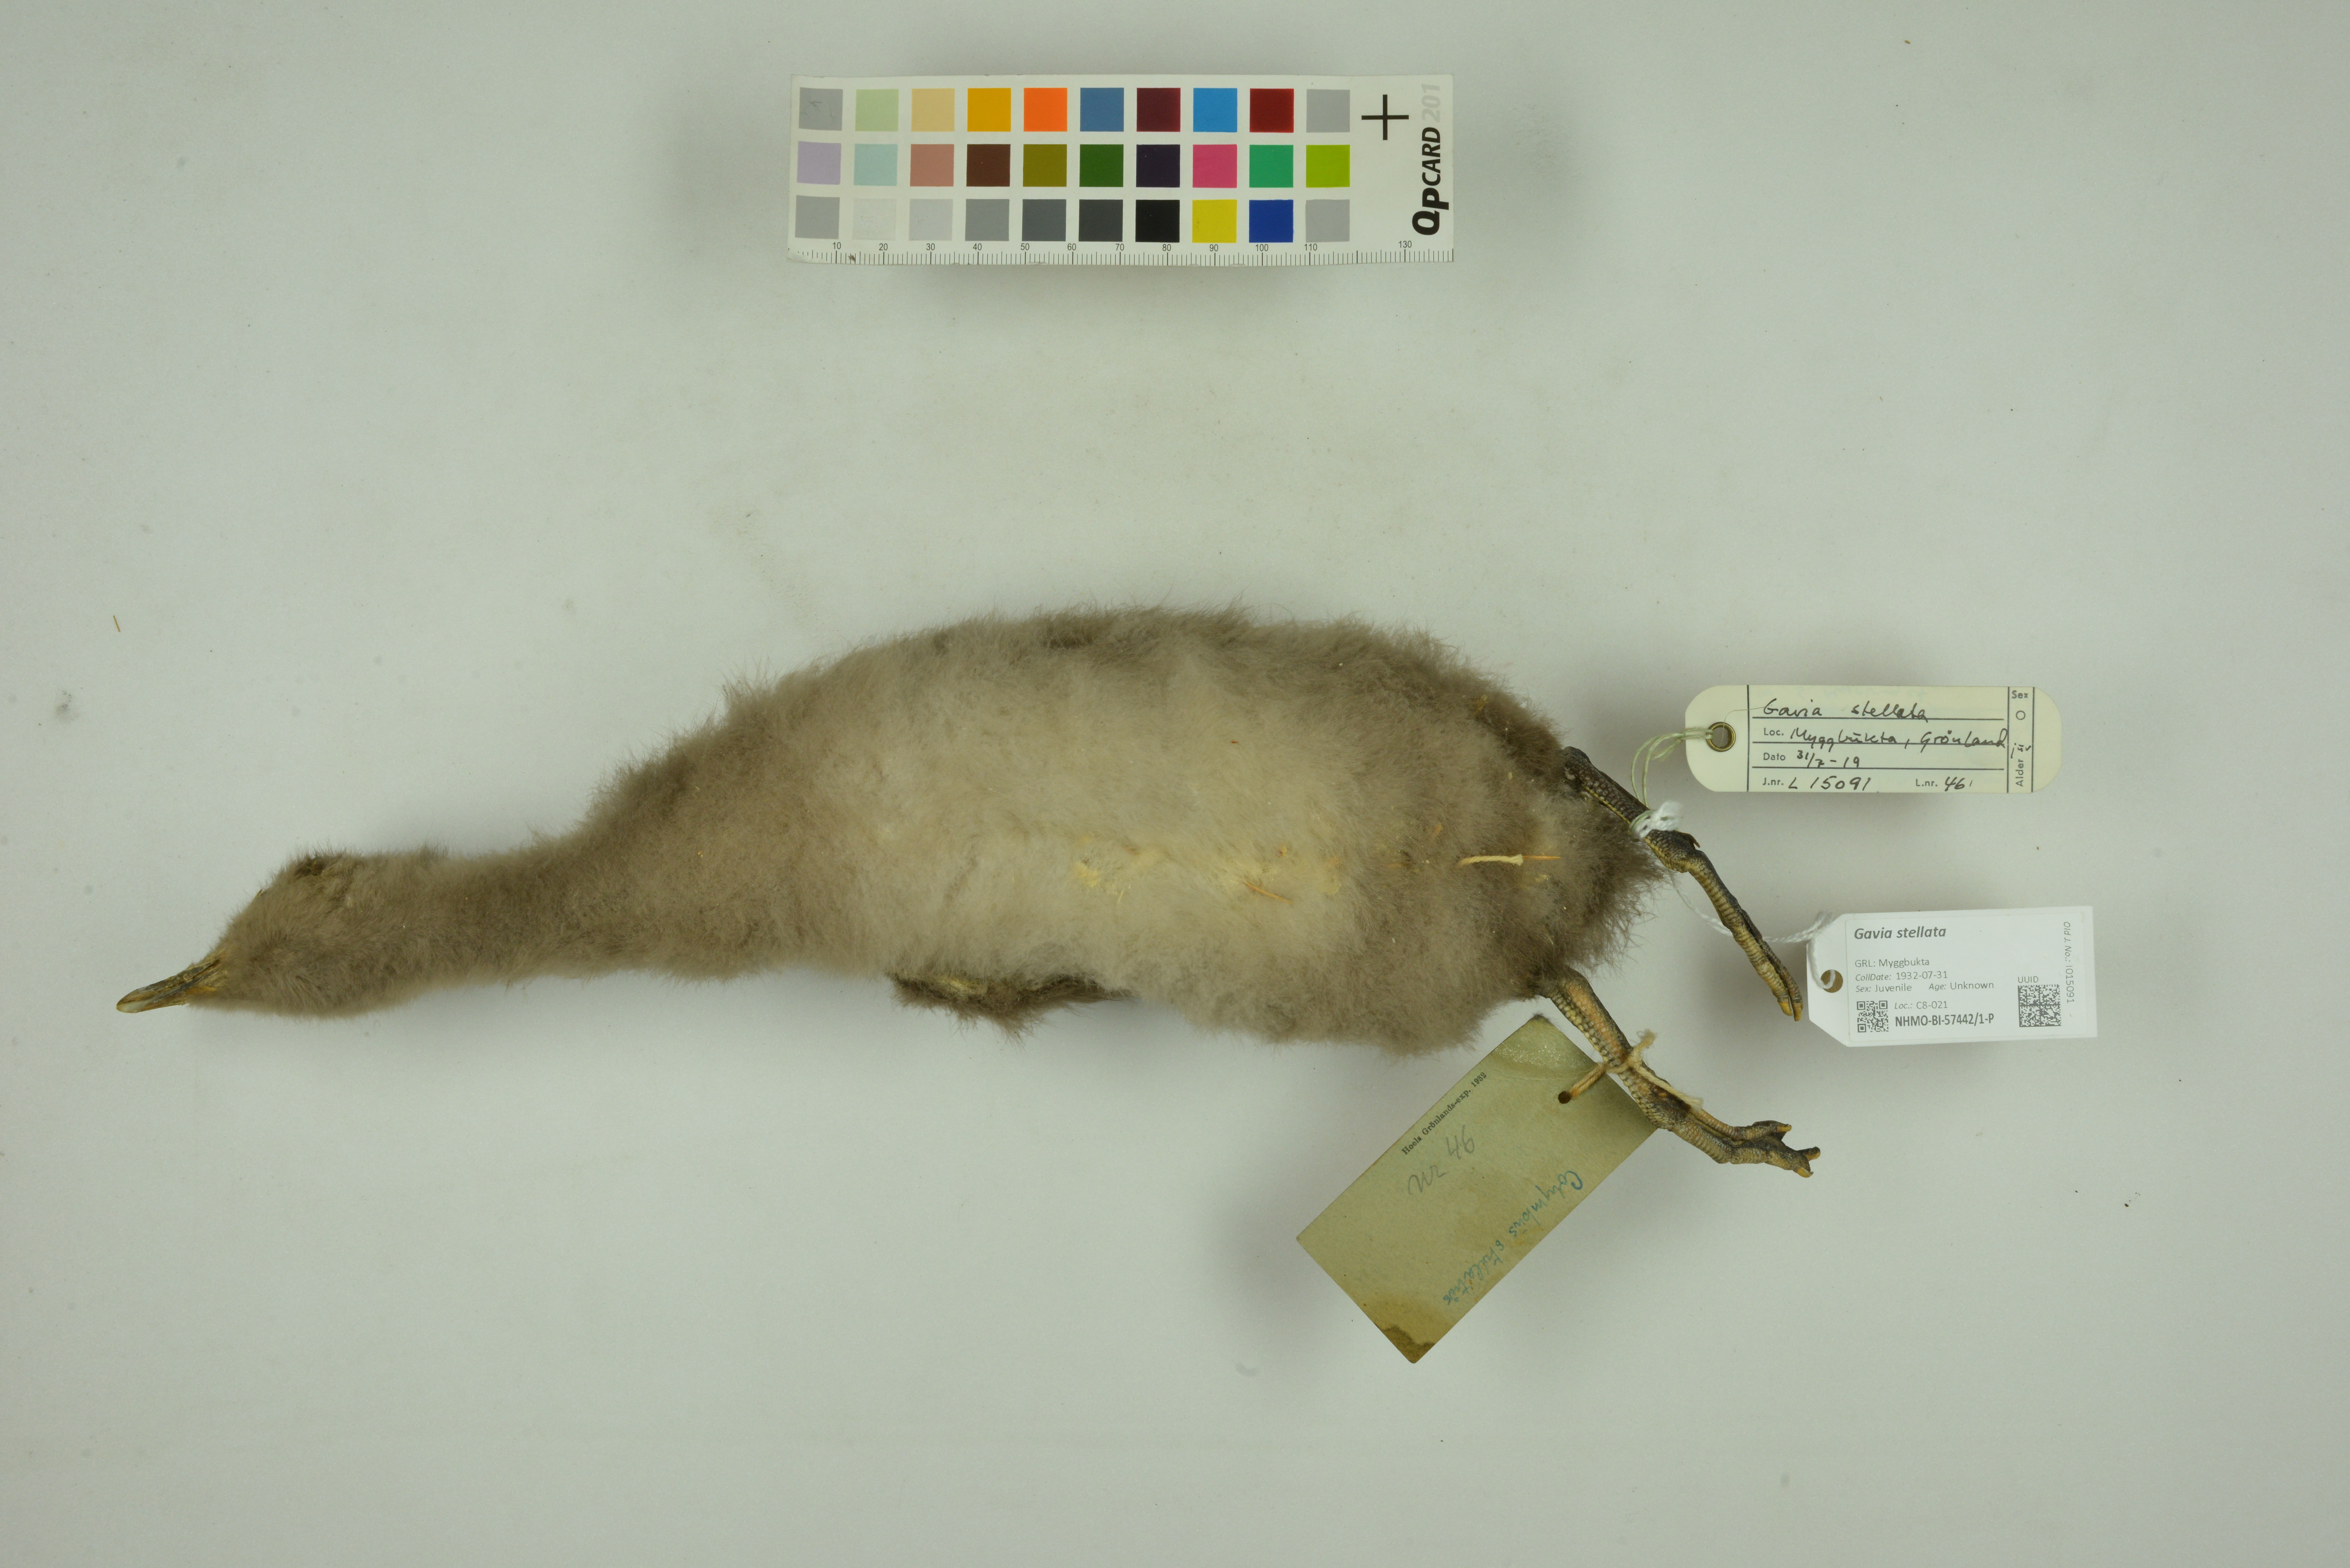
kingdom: Animalia
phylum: Chordata
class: Aves
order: Gaviiformes
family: Gaviidae
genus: Gavia
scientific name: Gavia stellata
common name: Red-throated loon
